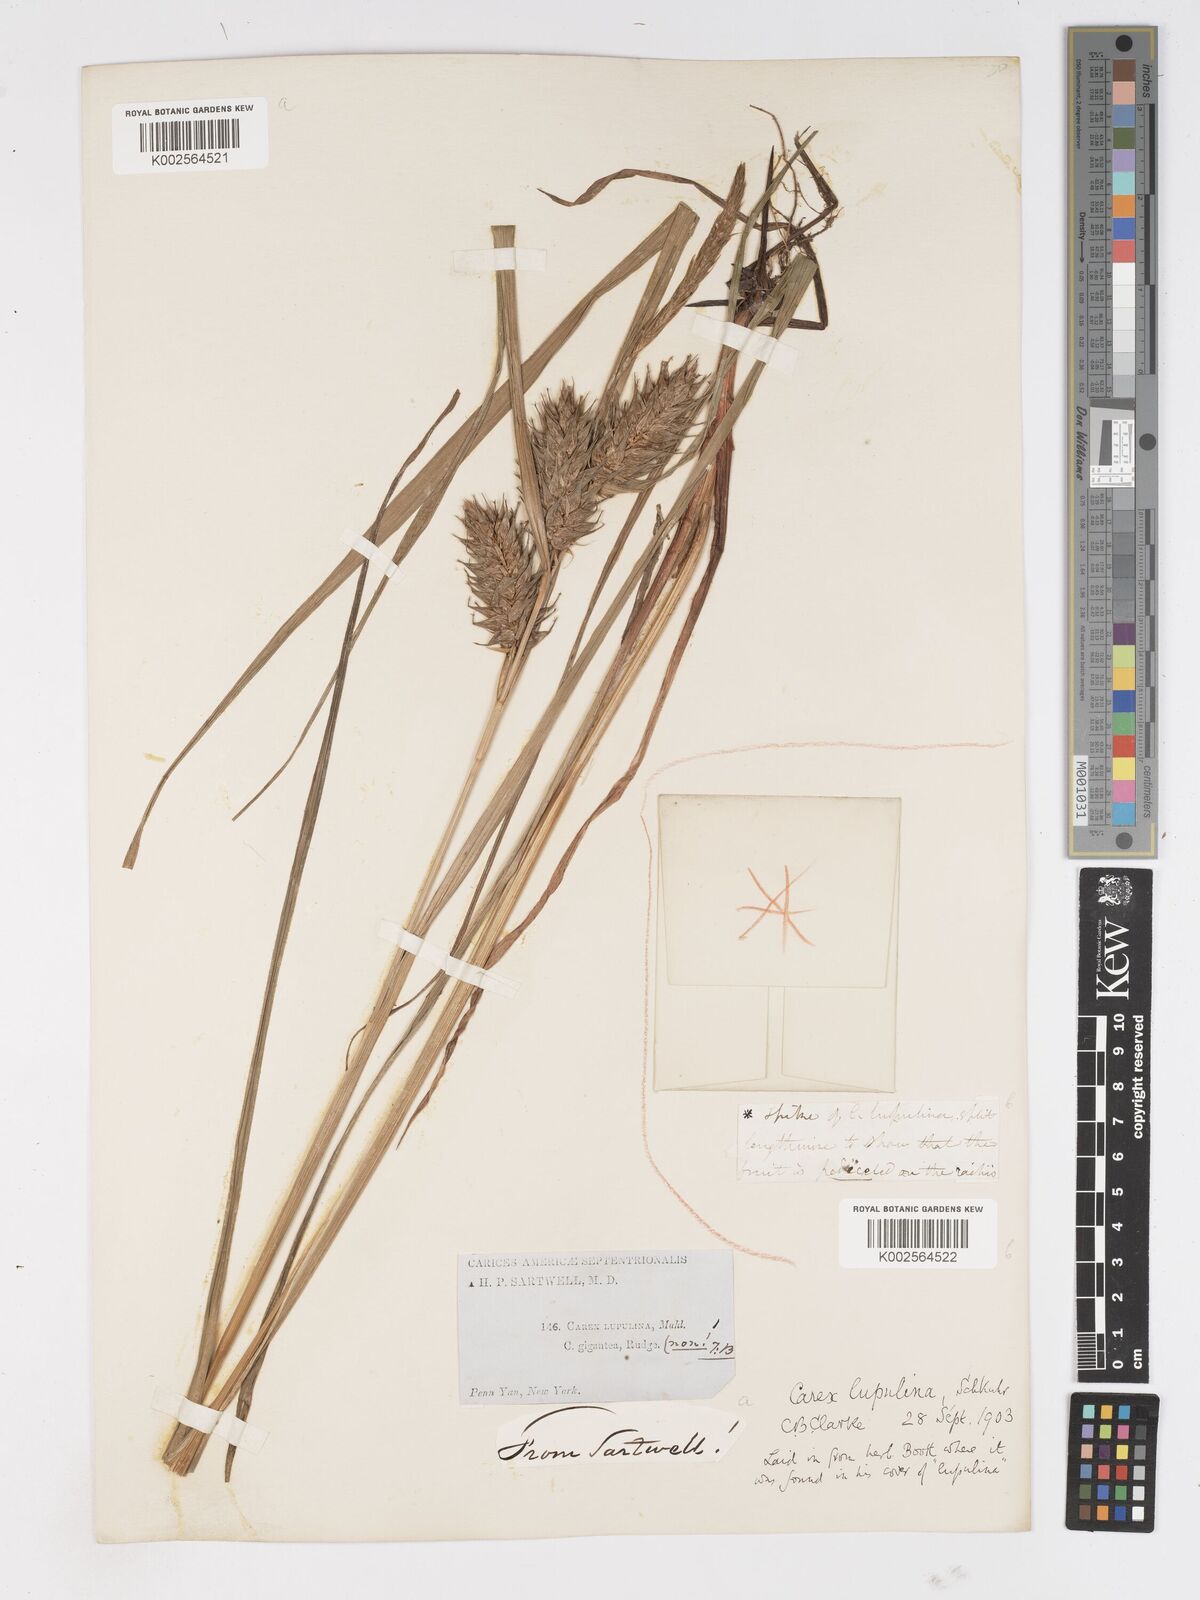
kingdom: Plantae
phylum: Tracheophyta
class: Liliopsida
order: Poales
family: Cyperaceae
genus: Carex
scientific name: Carex lupulina
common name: Hop sedge
